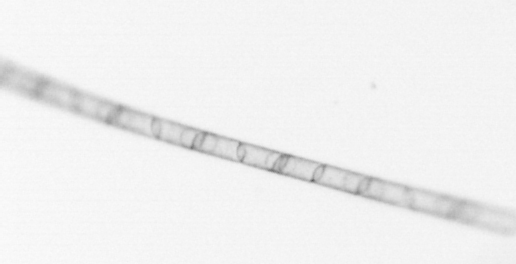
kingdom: Chromista
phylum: Ochrophyta
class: Bacillariophyceae
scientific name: Bacillariophyceae
